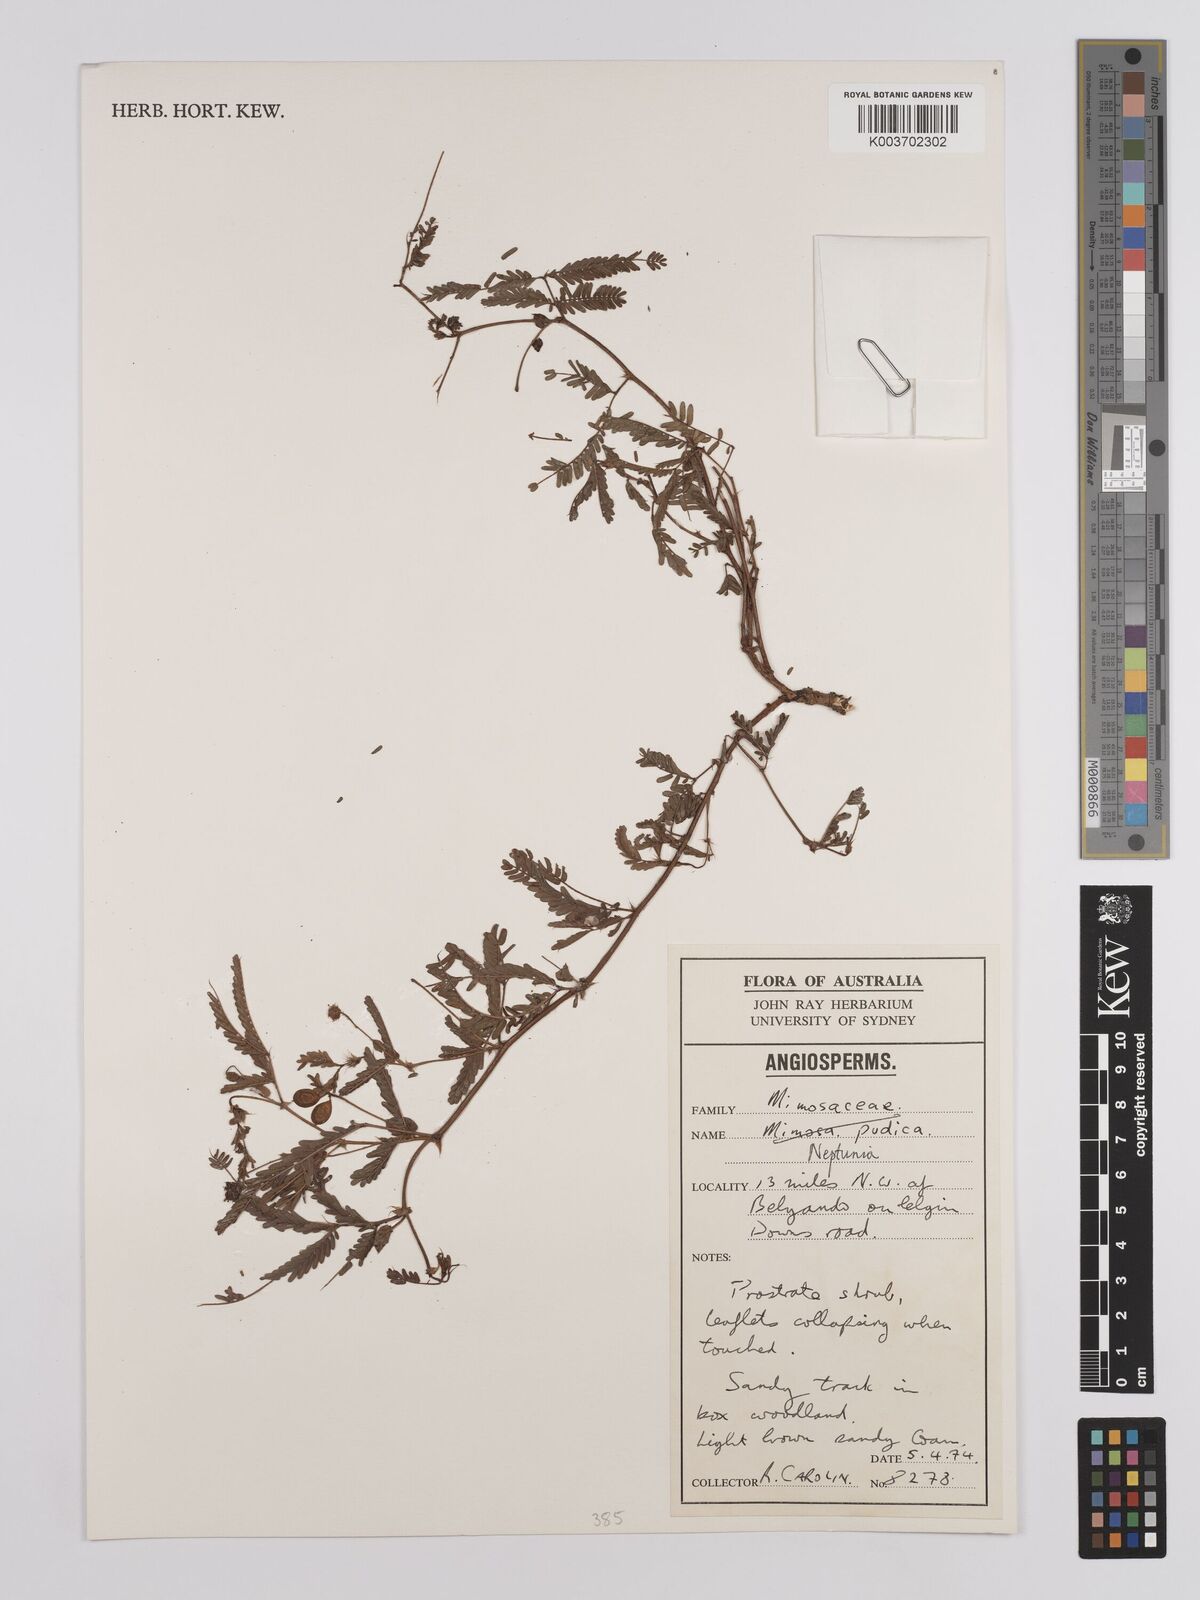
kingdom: Plantae
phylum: Tracheophyta
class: Magnoliopsida
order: Fabales
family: Fabaceae
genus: Neptunia
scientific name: Neptunia dimorphantha
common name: Sensitive-plant
